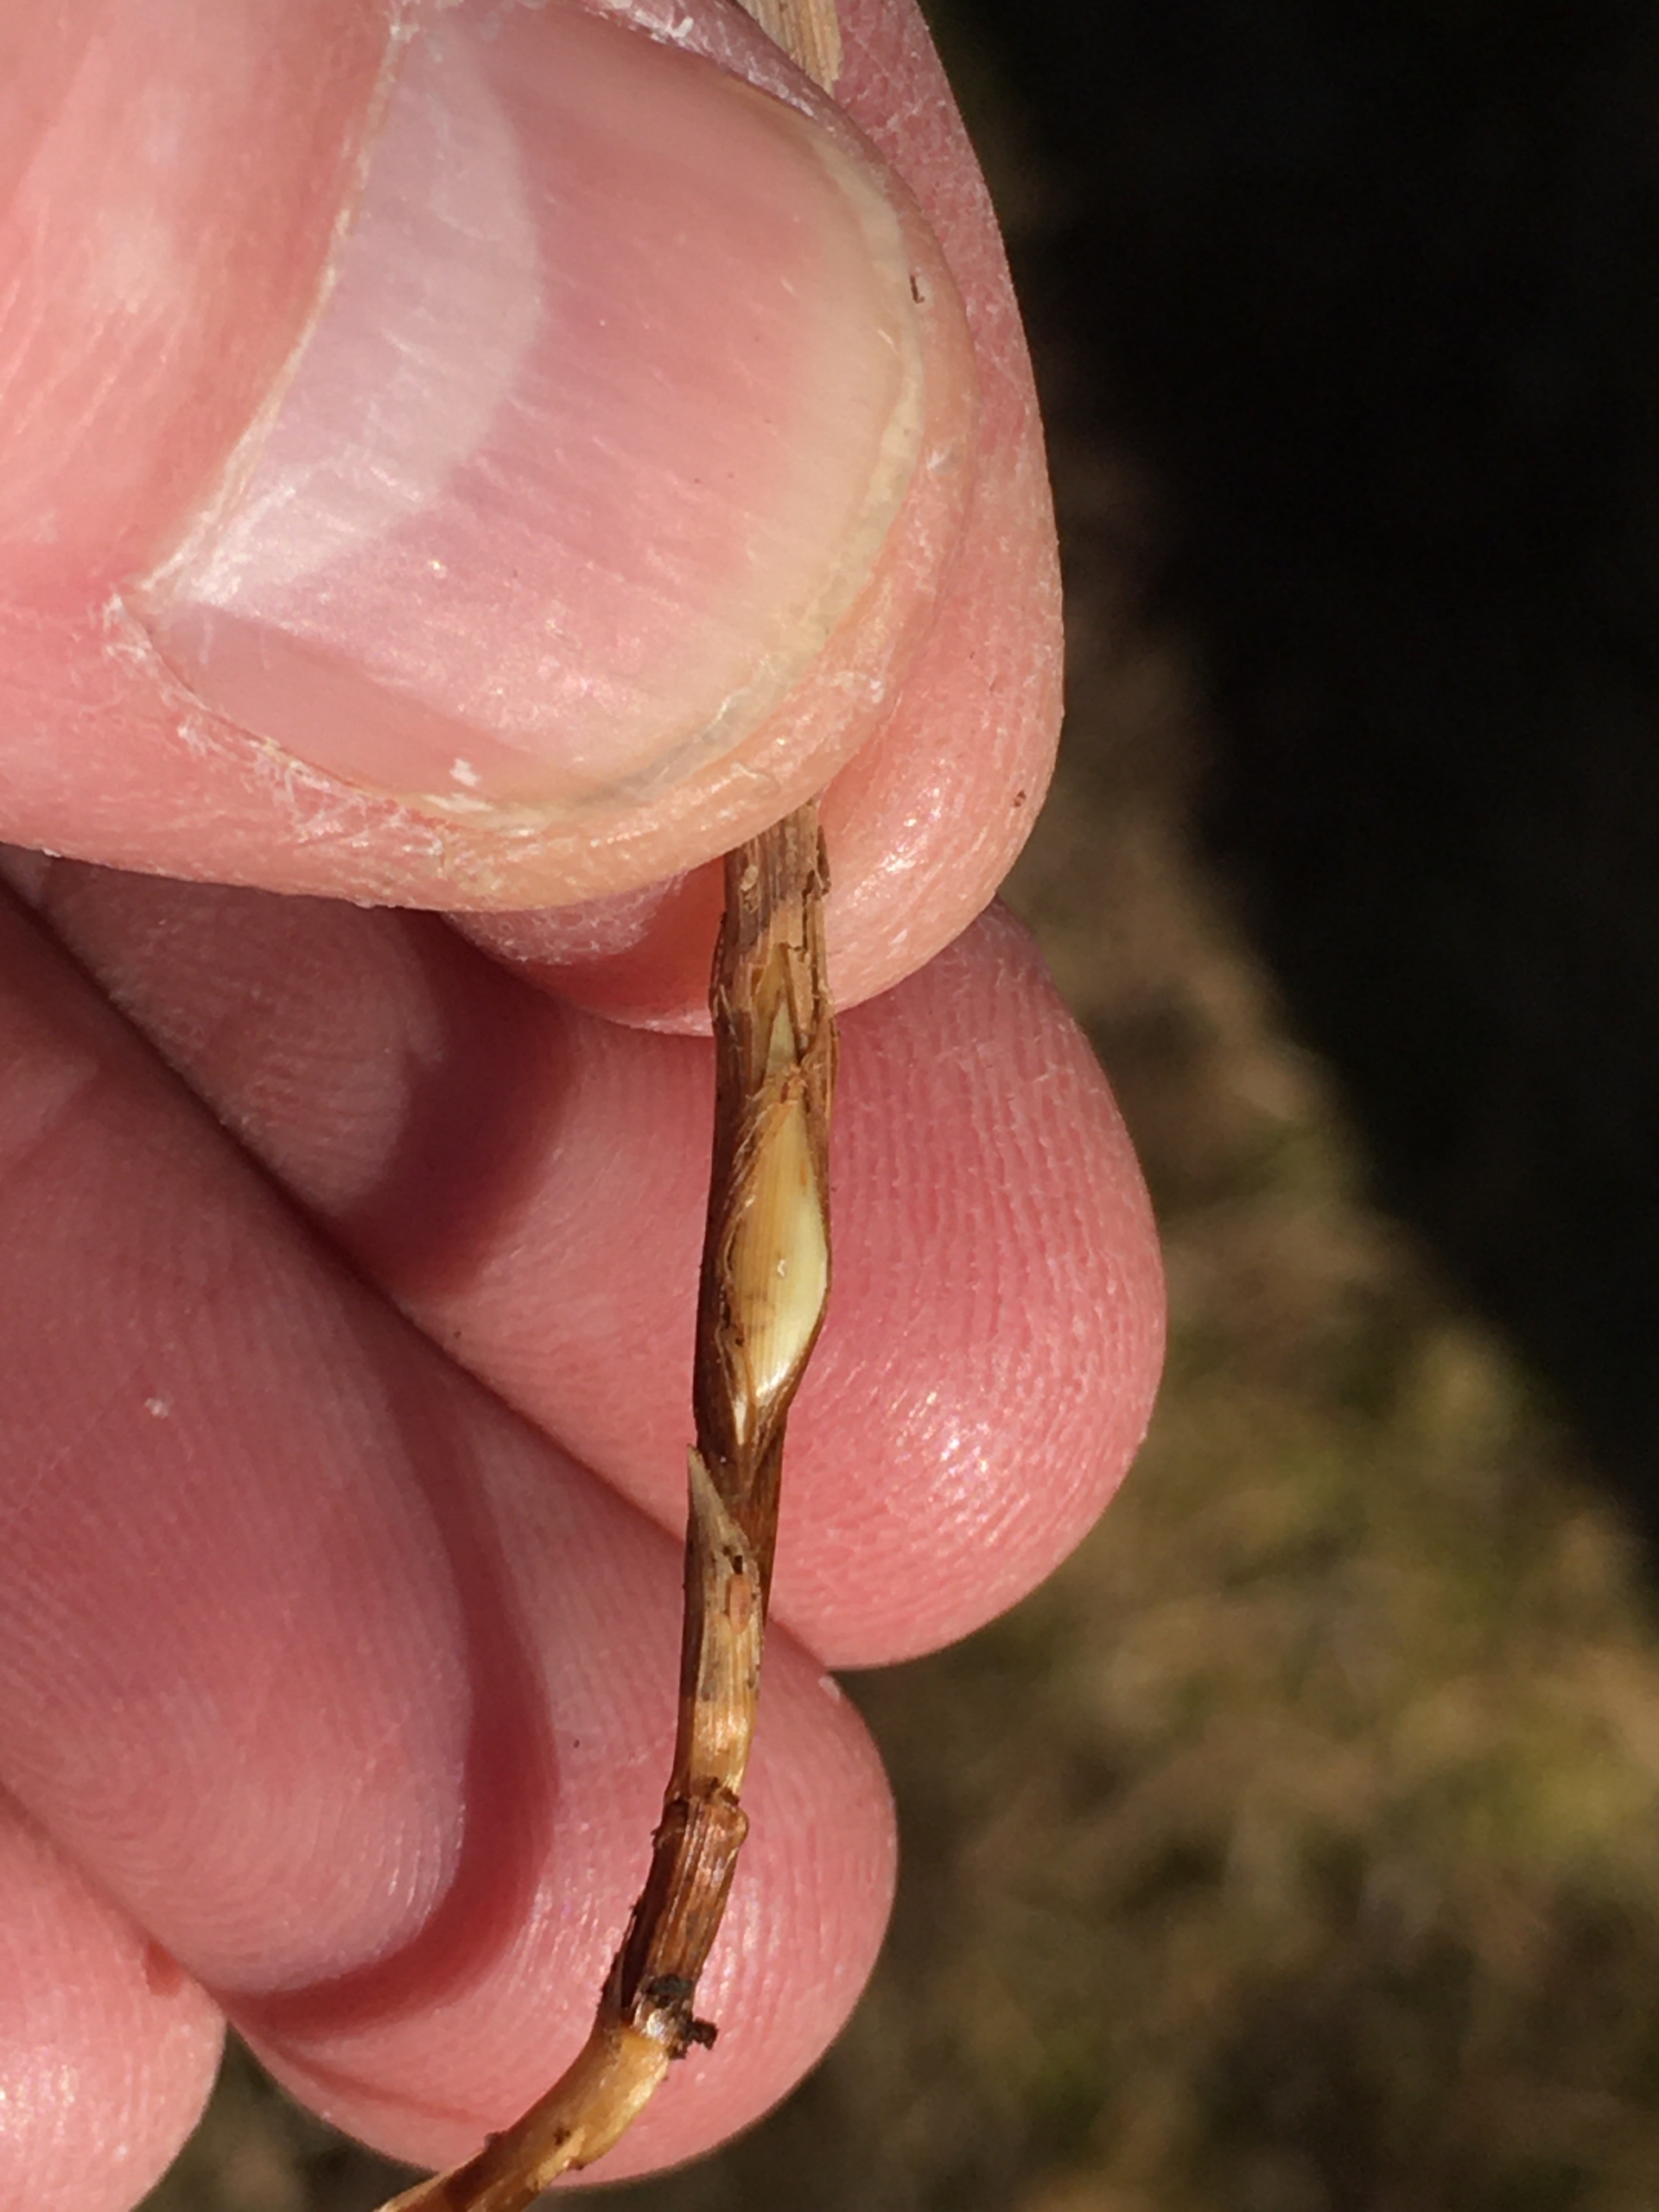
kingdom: Animalia
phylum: Arthropoda
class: Insecta
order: Diptera
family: Cecidomyiidae
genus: Planetella
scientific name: Planetella arenariae
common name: Sandstargalmyg
